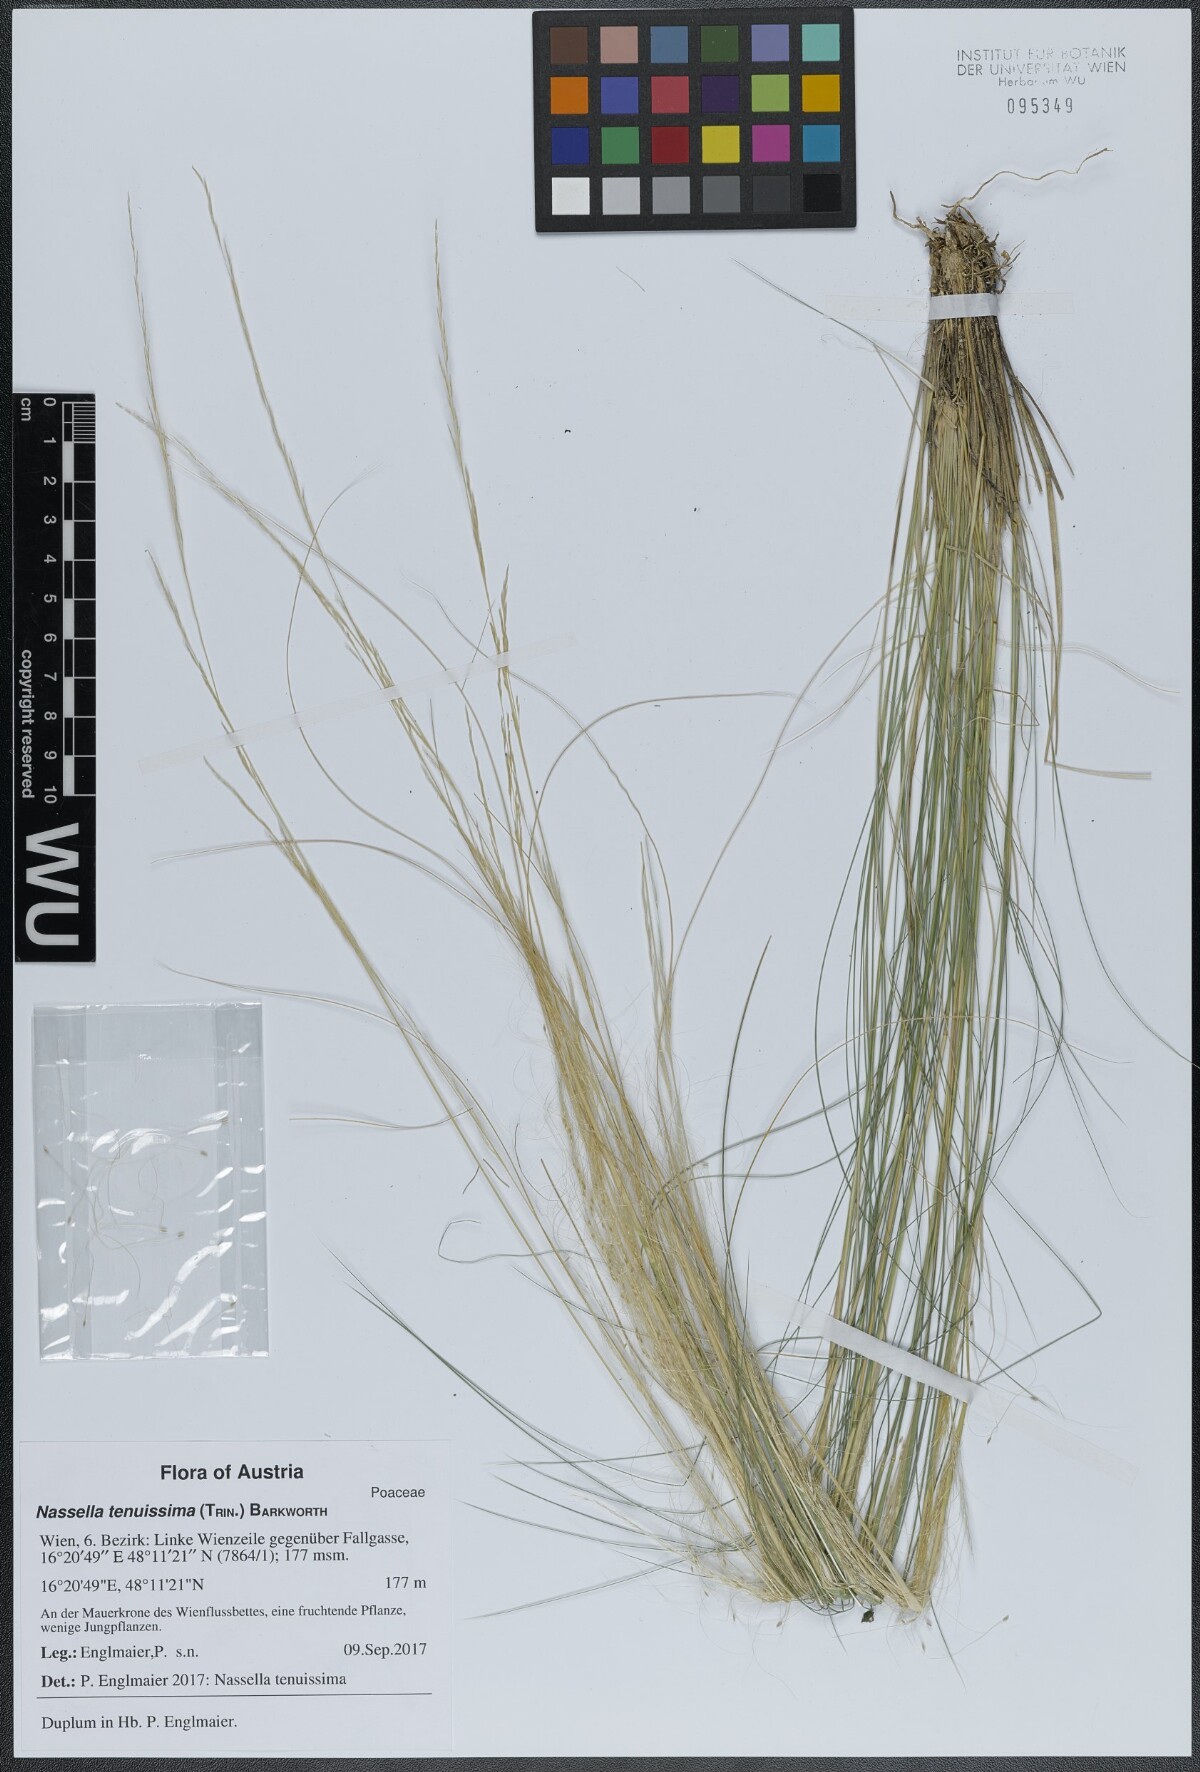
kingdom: Plantae
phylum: Tracheophyta
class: Liliopsida
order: Poales
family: Poaceae
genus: Nassella
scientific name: Nassella tenuissima
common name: Argentine needlegrass
